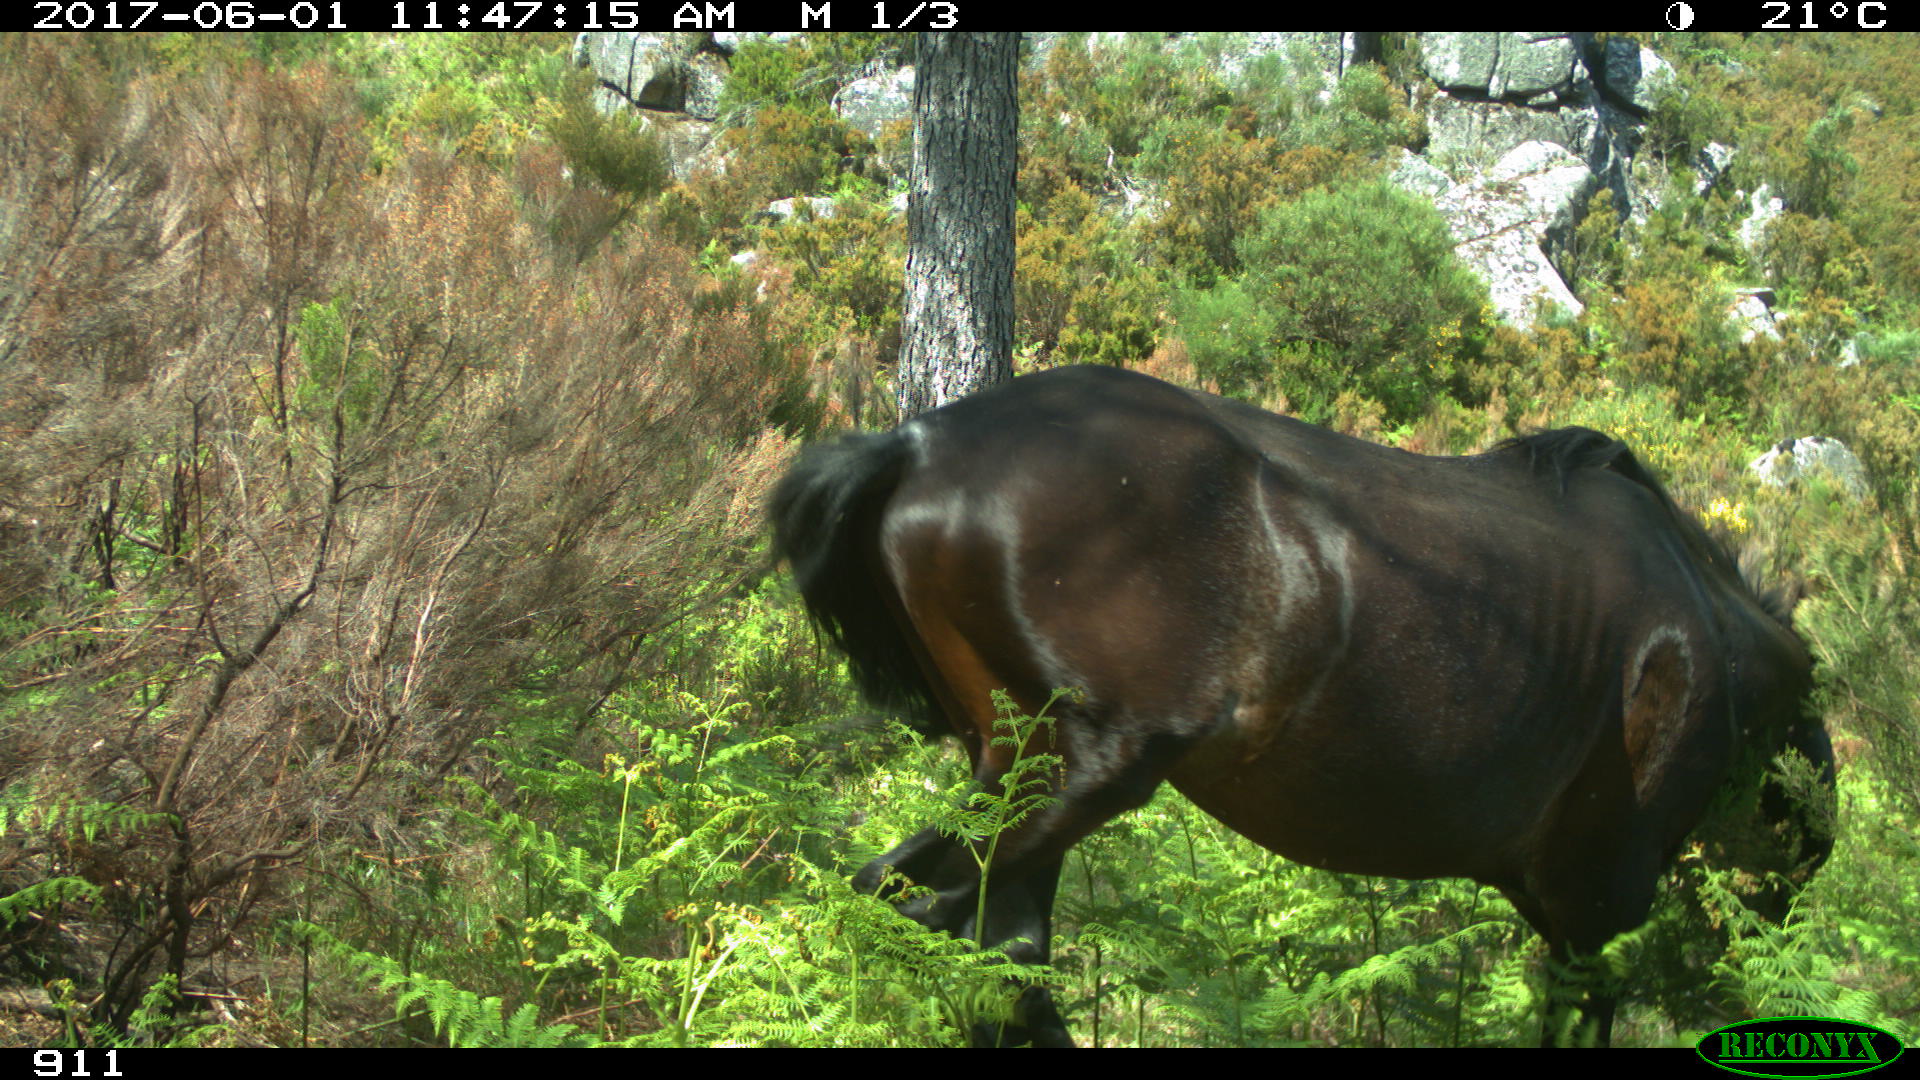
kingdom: Animalia
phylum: Chordata
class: Mammalia
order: Perissodactyla
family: Equidae
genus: Equus
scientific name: Equus caballus
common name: Horse
